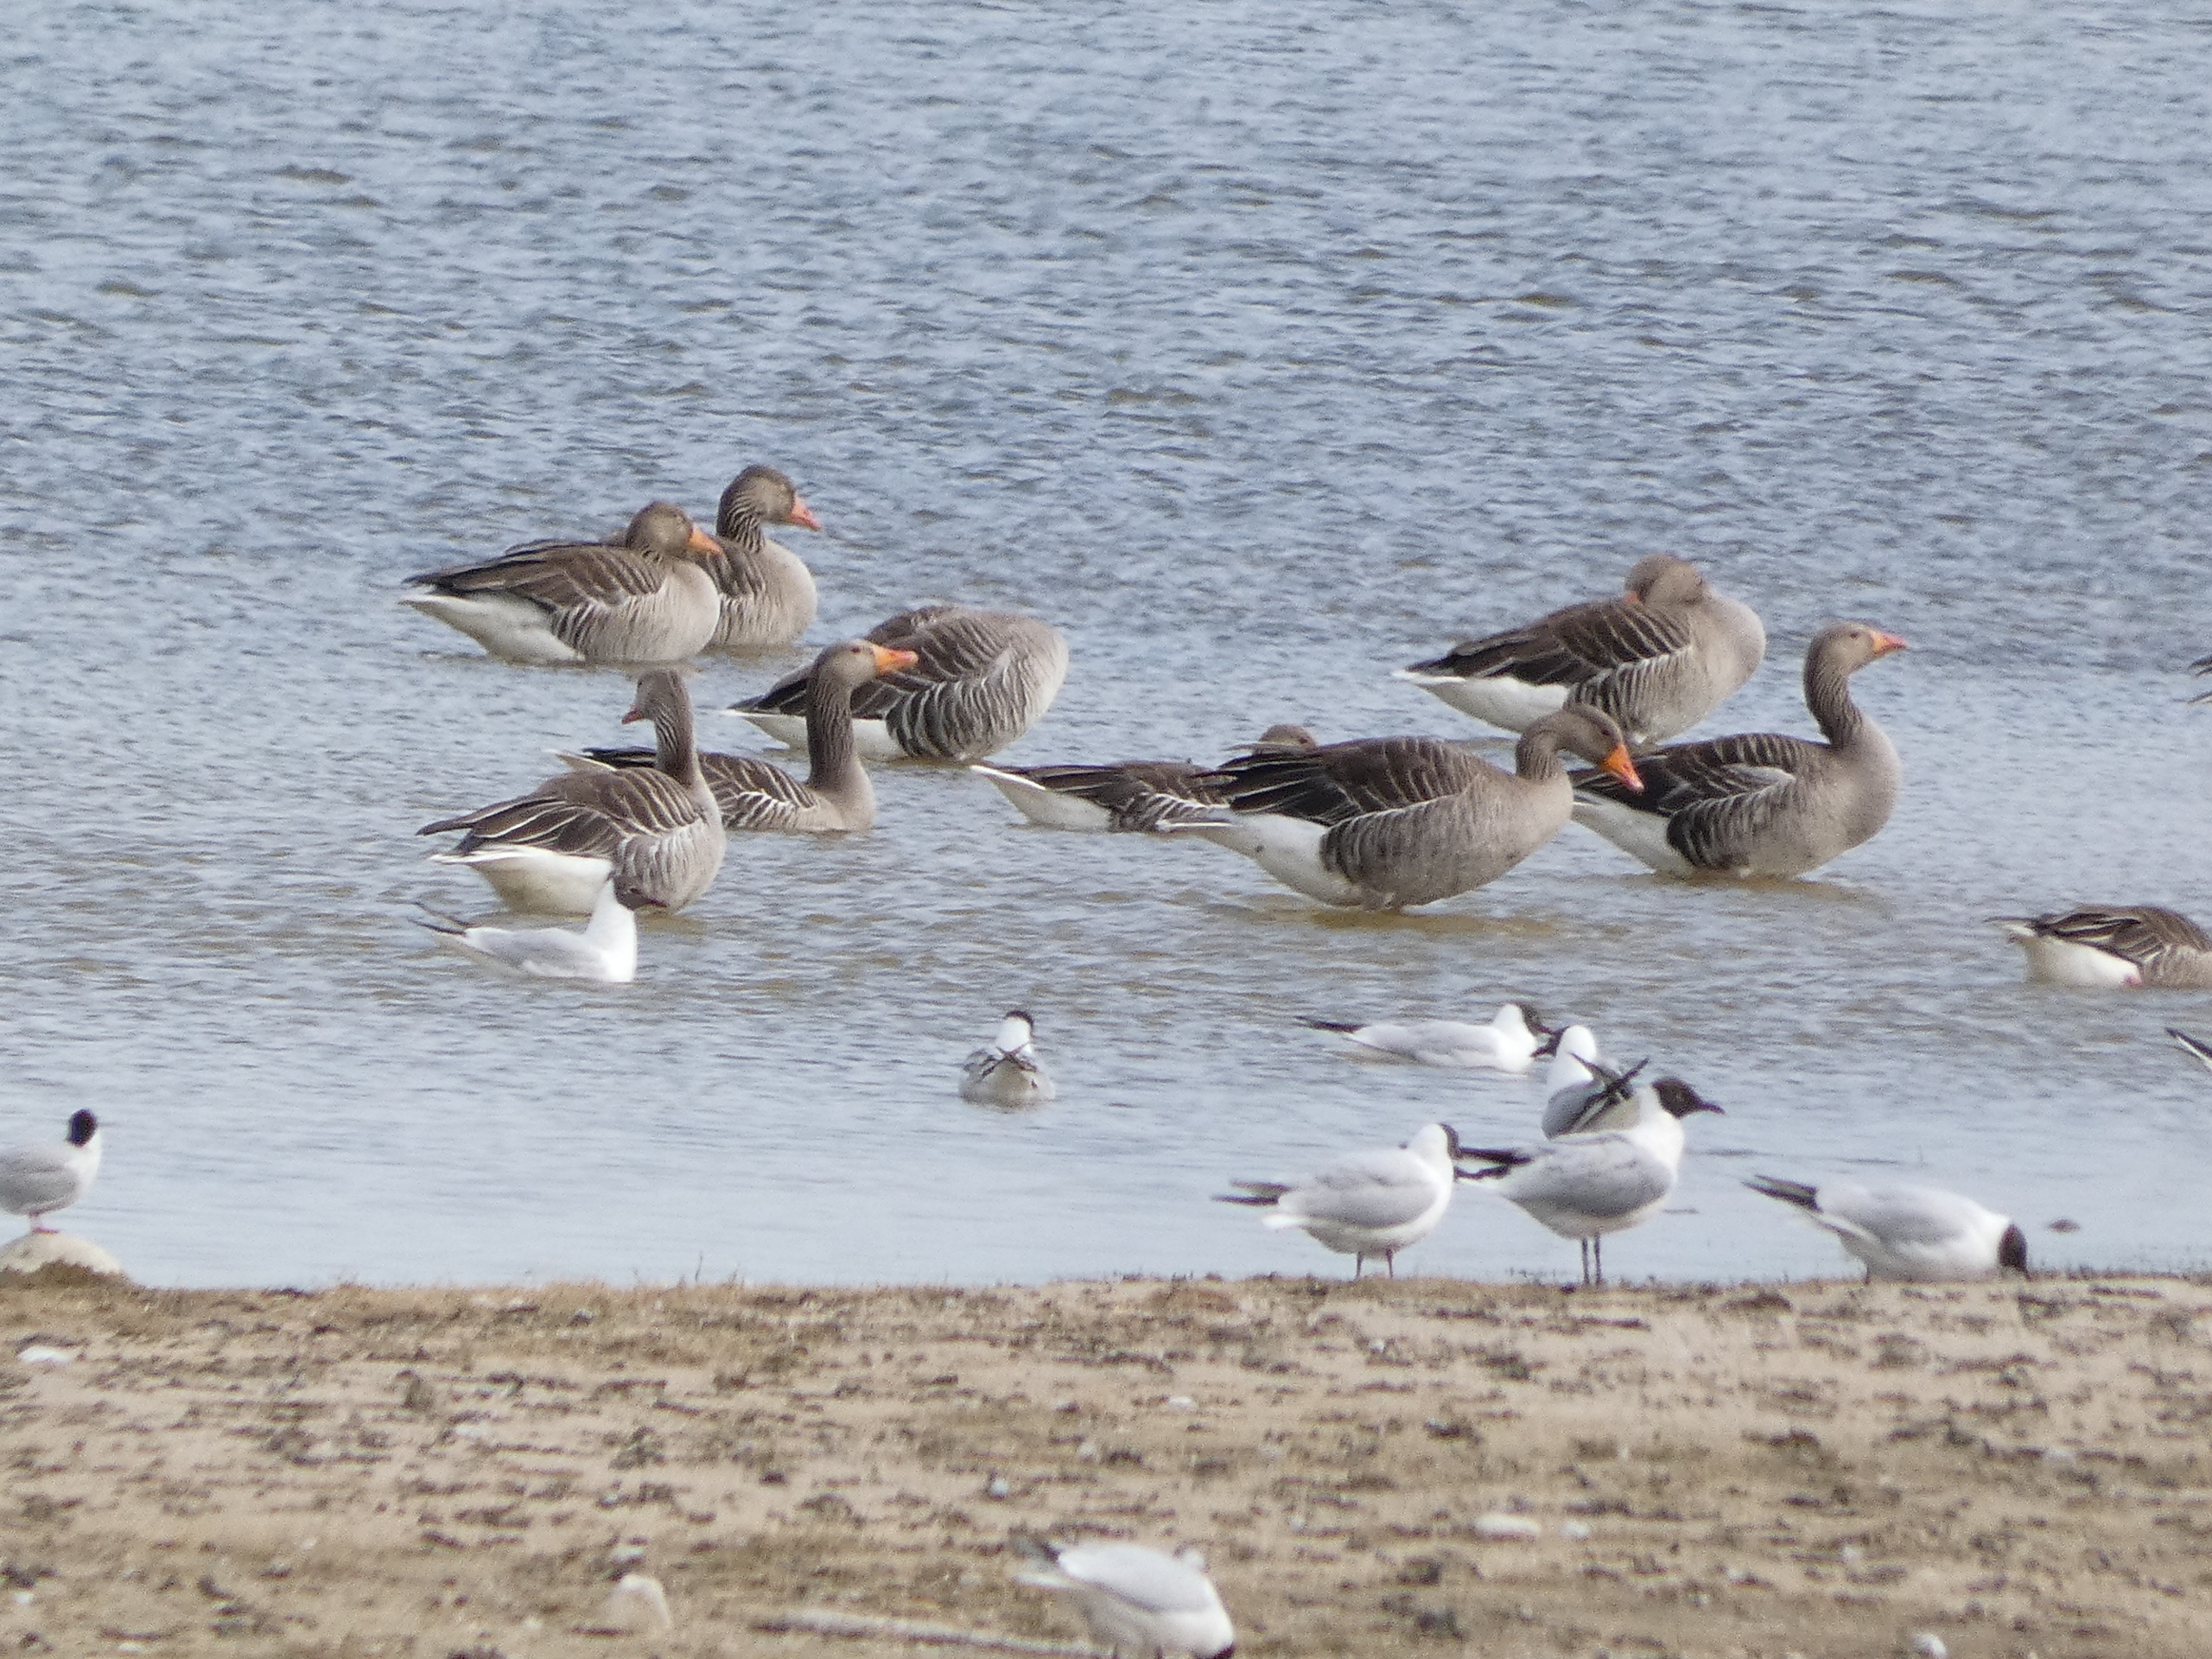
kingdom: Animalia
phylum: Chordata
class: Aves
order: Anseriformes
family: Anatidae
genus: Anser
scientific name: Anser anser
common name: Grågås
